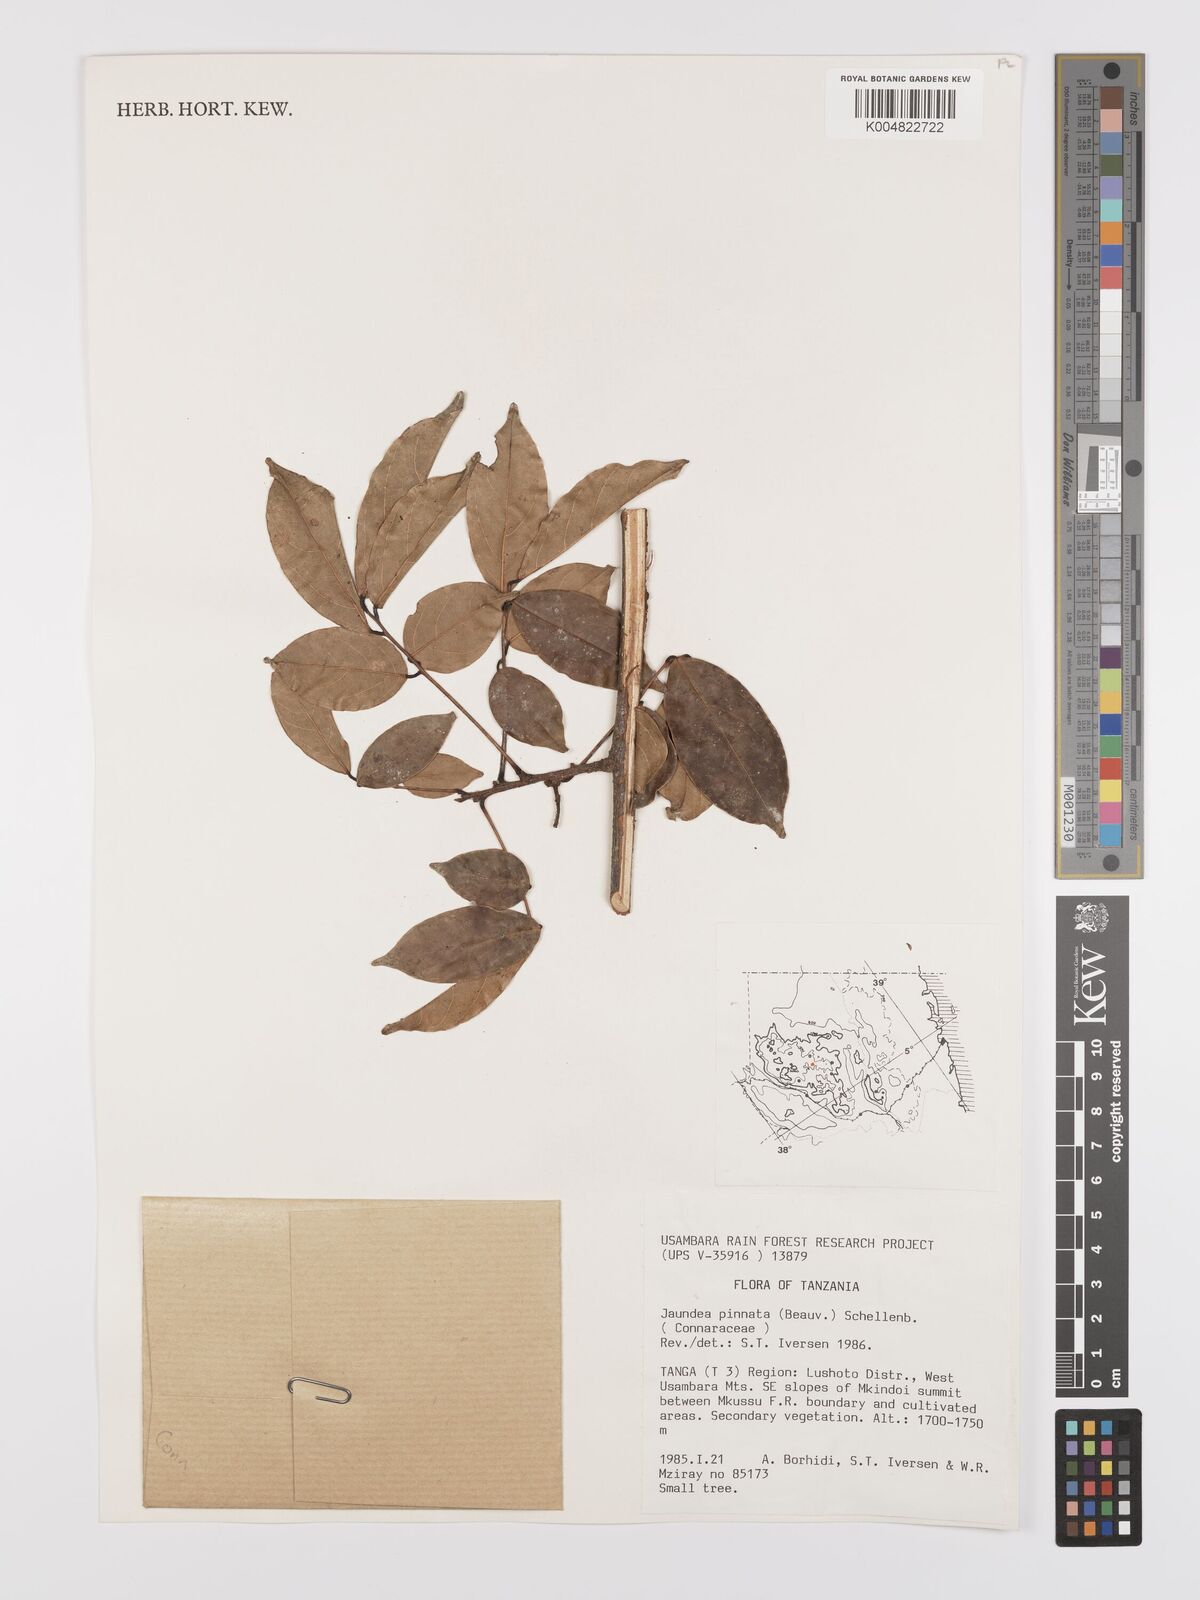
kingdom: Plantae
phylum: Tracheophyta
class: Magnoliopsida
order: Oxalidales
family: Connaraceae
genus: Rourea
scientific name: Rourea pinnata
